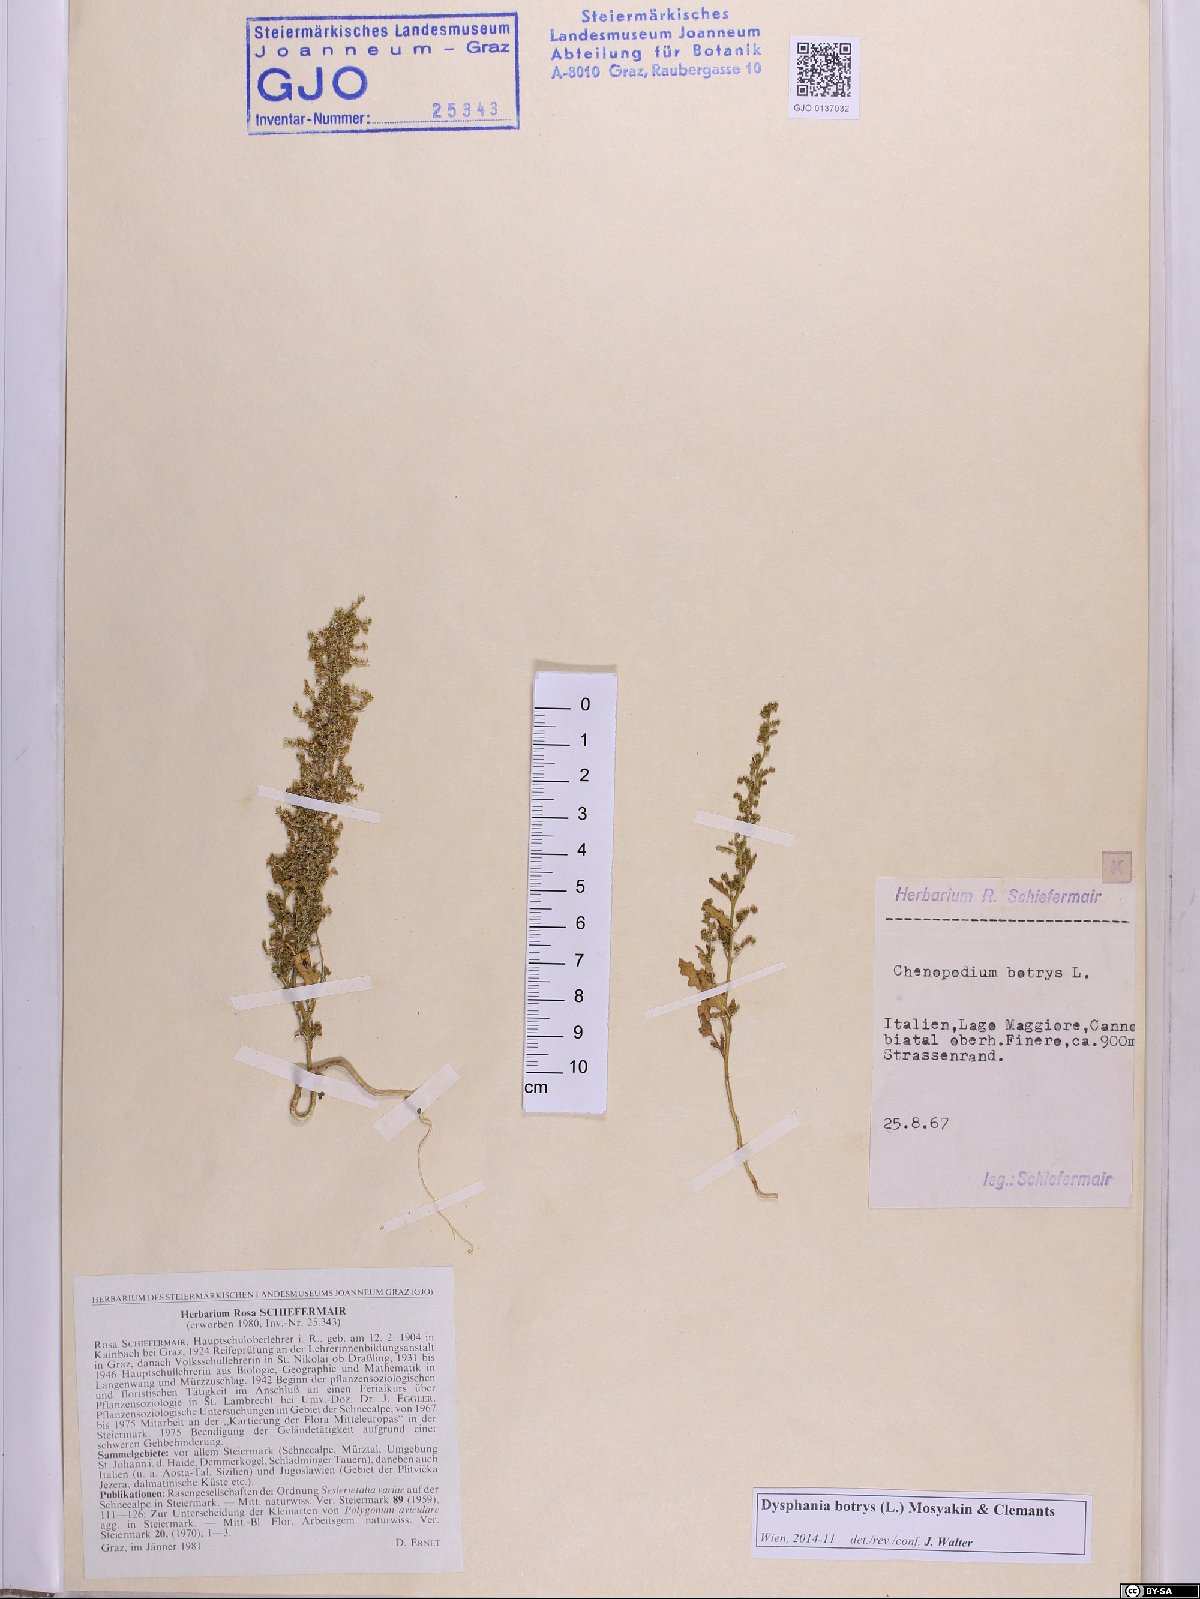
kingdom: Plantae
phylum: Tracheophyta
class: Magnoliopsida
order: Caryophyllales
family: Amaranthaceae
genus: Dysphania
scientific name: Dysphania botrys
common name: Feather-geranium
